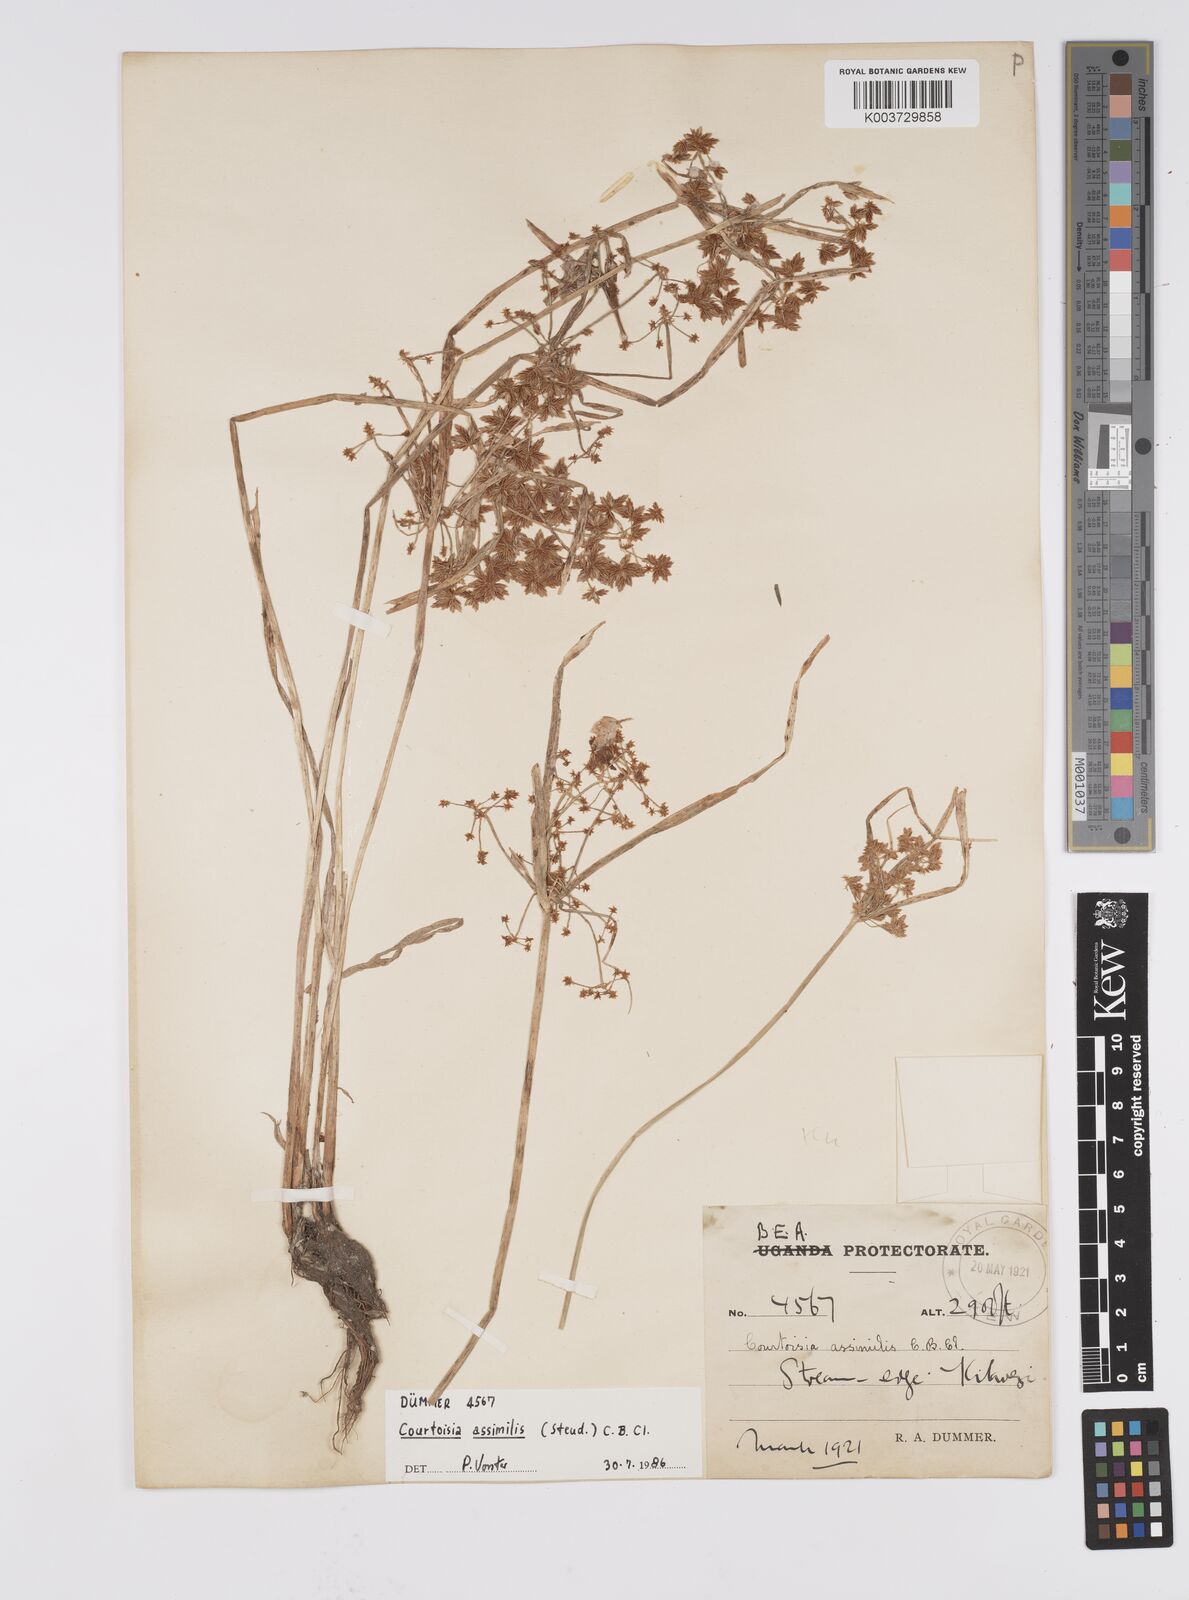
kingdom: Plantae
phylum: Tracheophyta
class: Liliopsida
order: Poales
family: Cyperaceae
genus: Cyperus
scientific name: Cyperus assimilis
